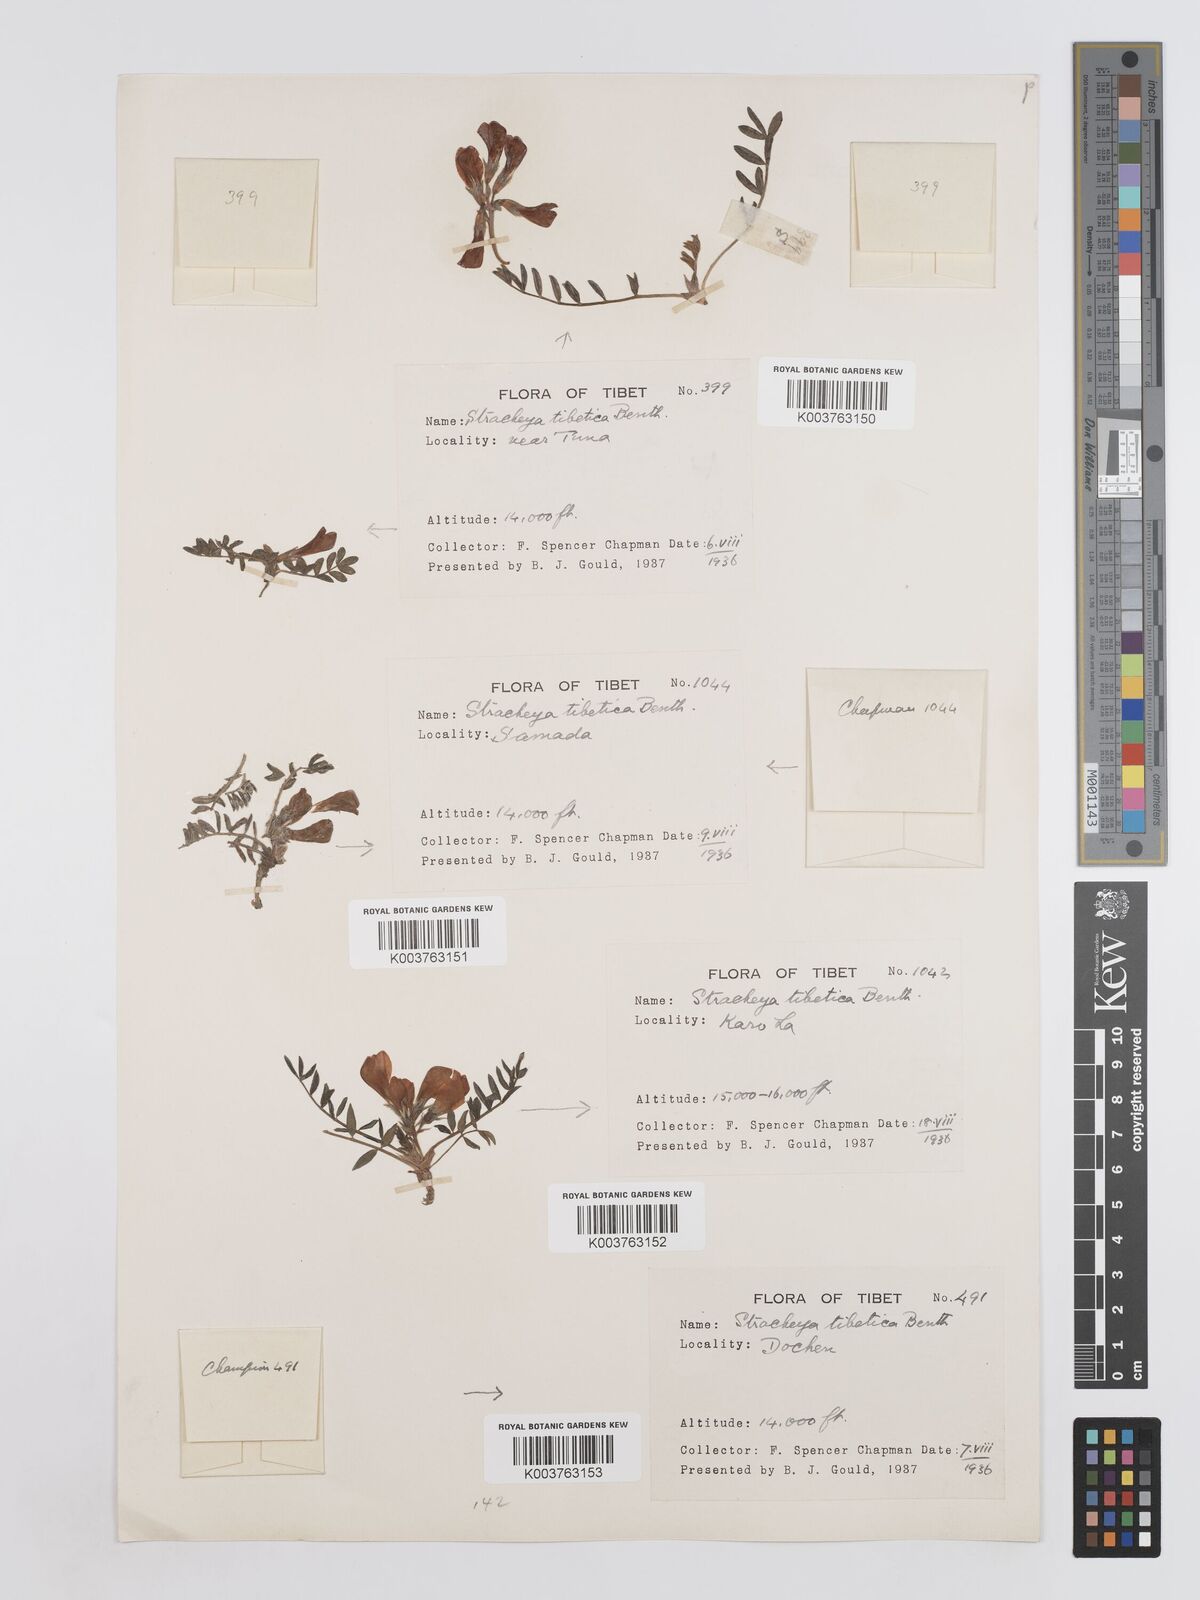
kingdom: Plantae
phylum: Tracheophyta
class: Magnoliopsida
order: Fabales
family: Fabaceae
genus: Hedysarum
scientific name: Hedysarum tibeticum
